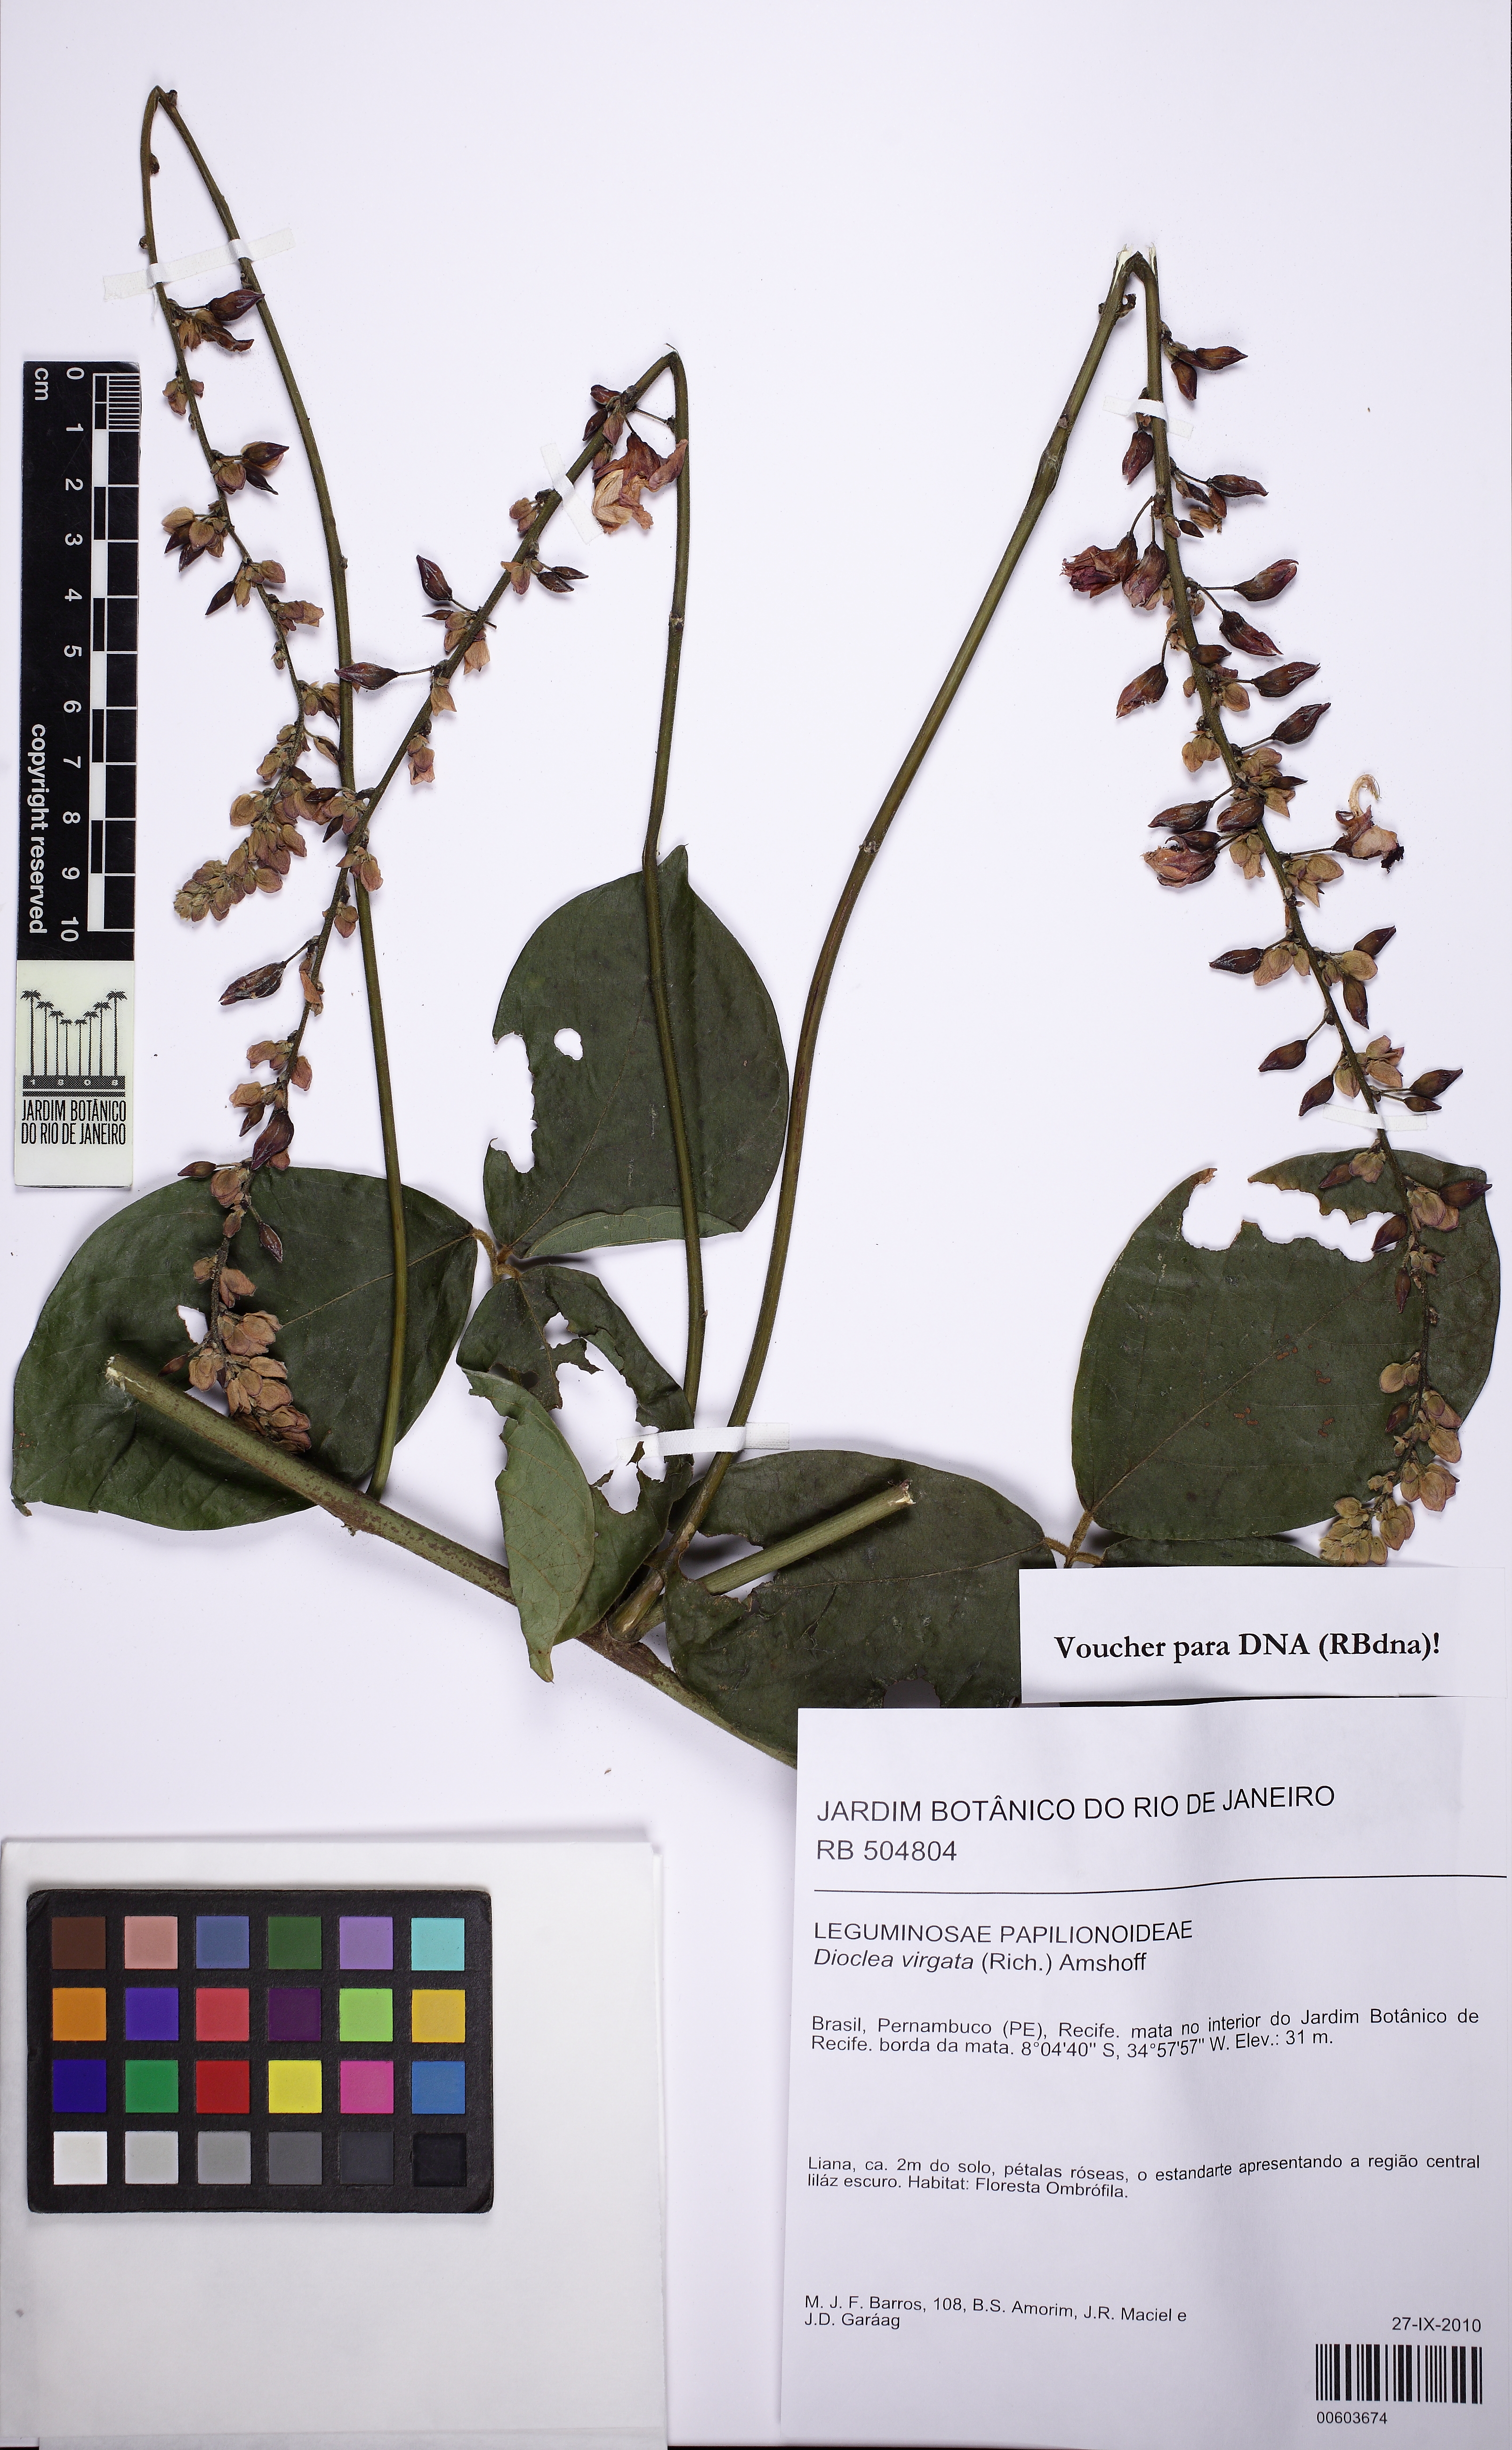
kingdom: Plantae
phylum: Tracheophyta
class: Magnoliopsida
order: Fabales
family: Fabaceae
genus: Dioclea
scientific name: Dioclea virgata
